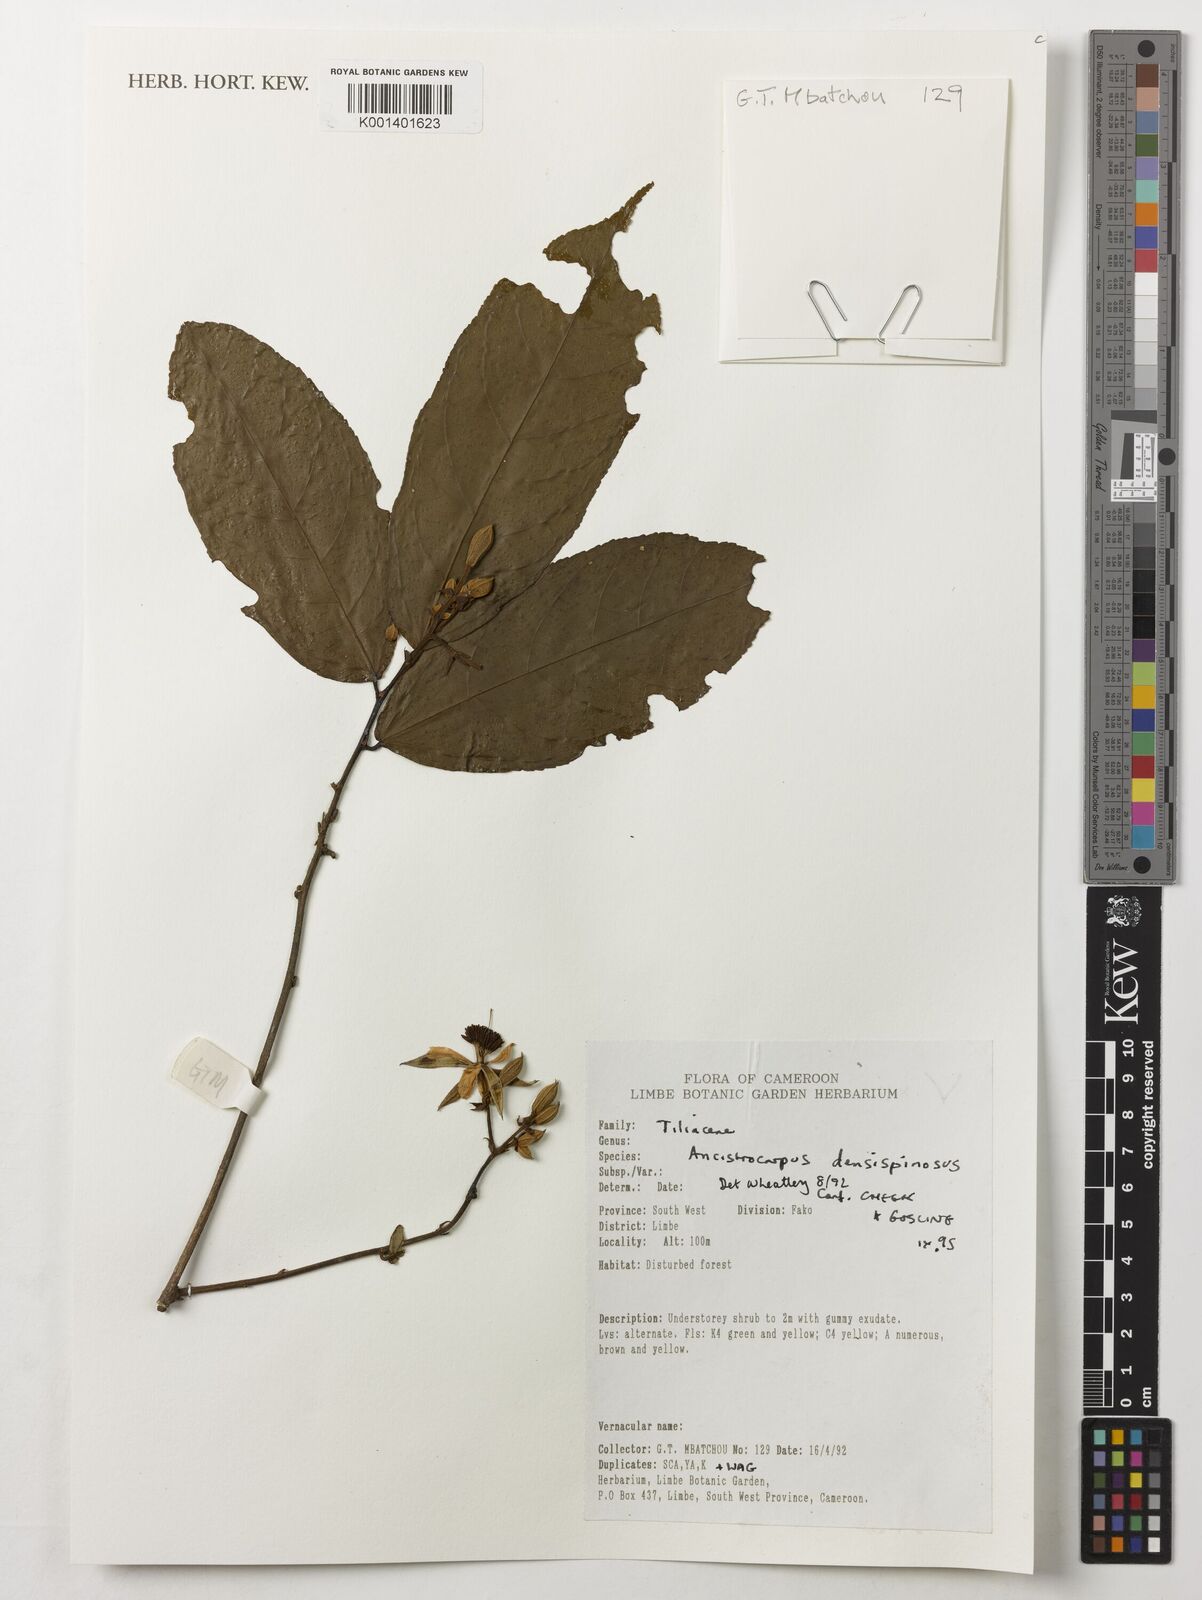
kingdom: Plantae
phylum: Tracheophyta
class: Magnoliopsida
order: Malvales
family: Malvaceae
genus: Ancistrocarpus
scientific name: Ancistrocarpus densispinosus
